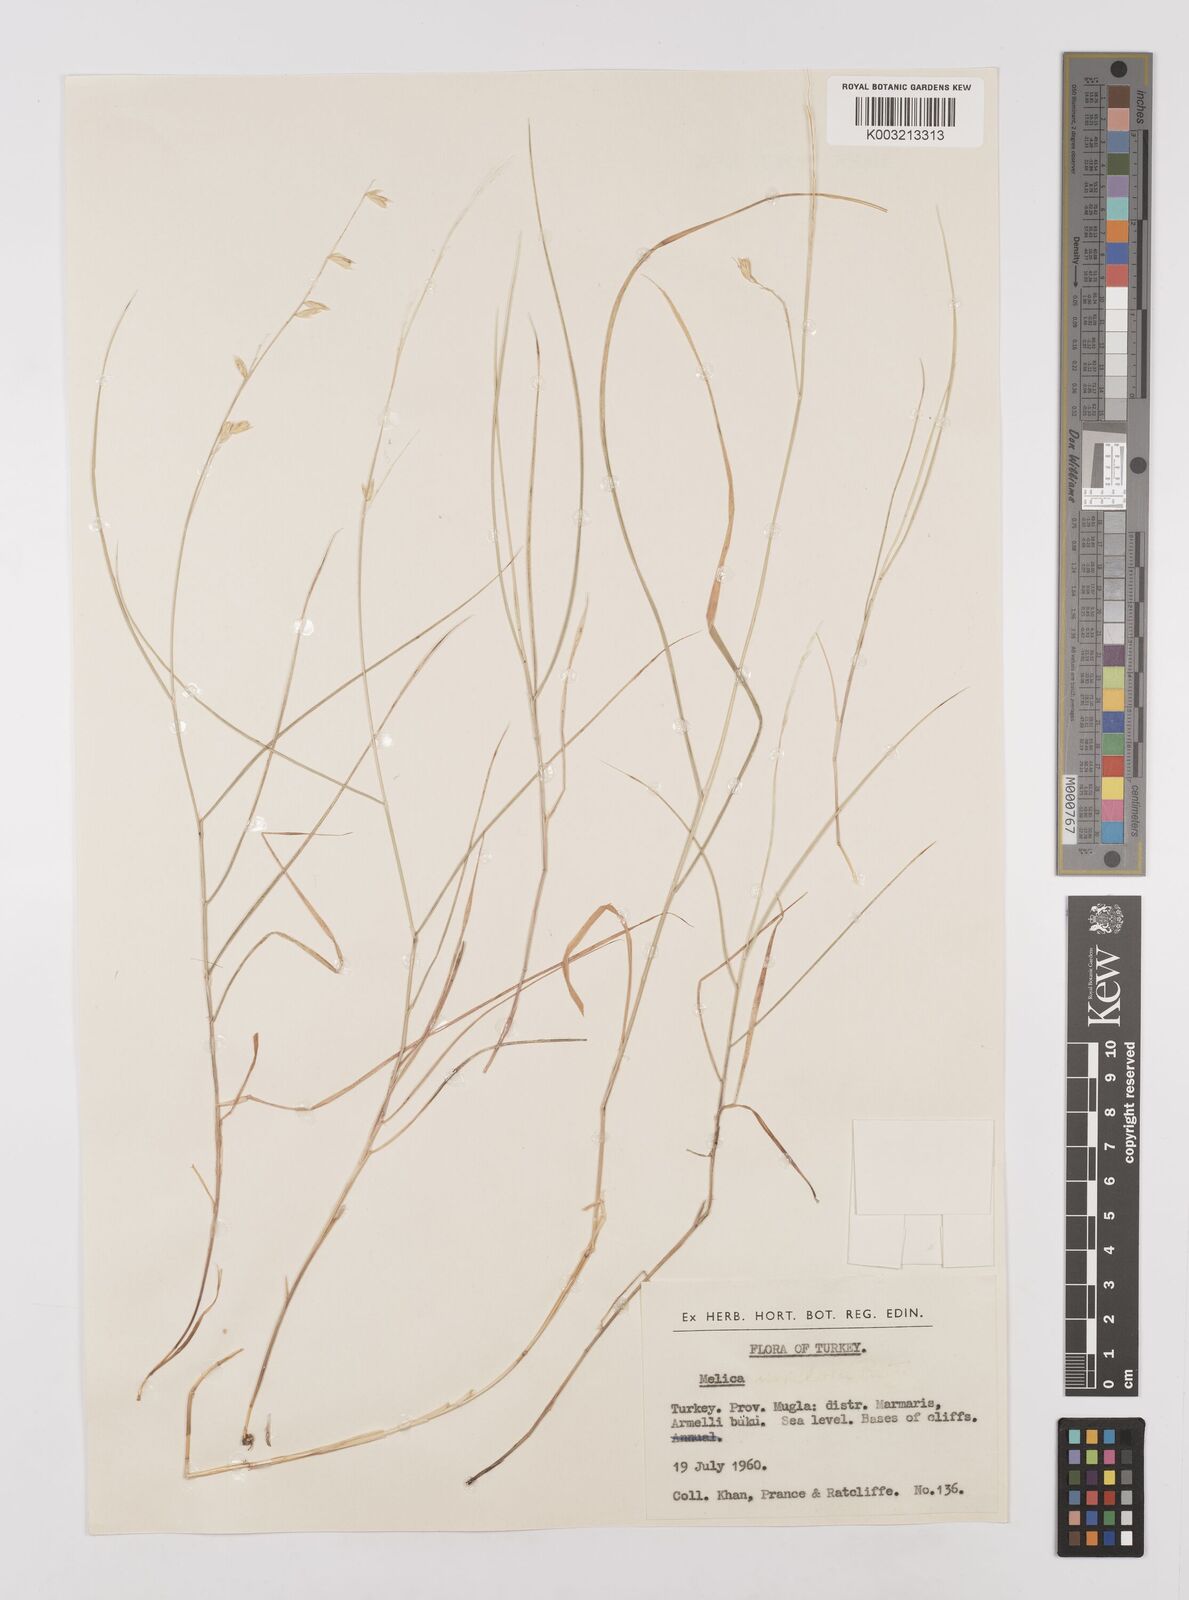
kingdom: Plantae
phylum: Tracheophyta
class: Liliopsida
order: Poales
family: Poaceae
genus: Melica
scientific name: Melica minuta
